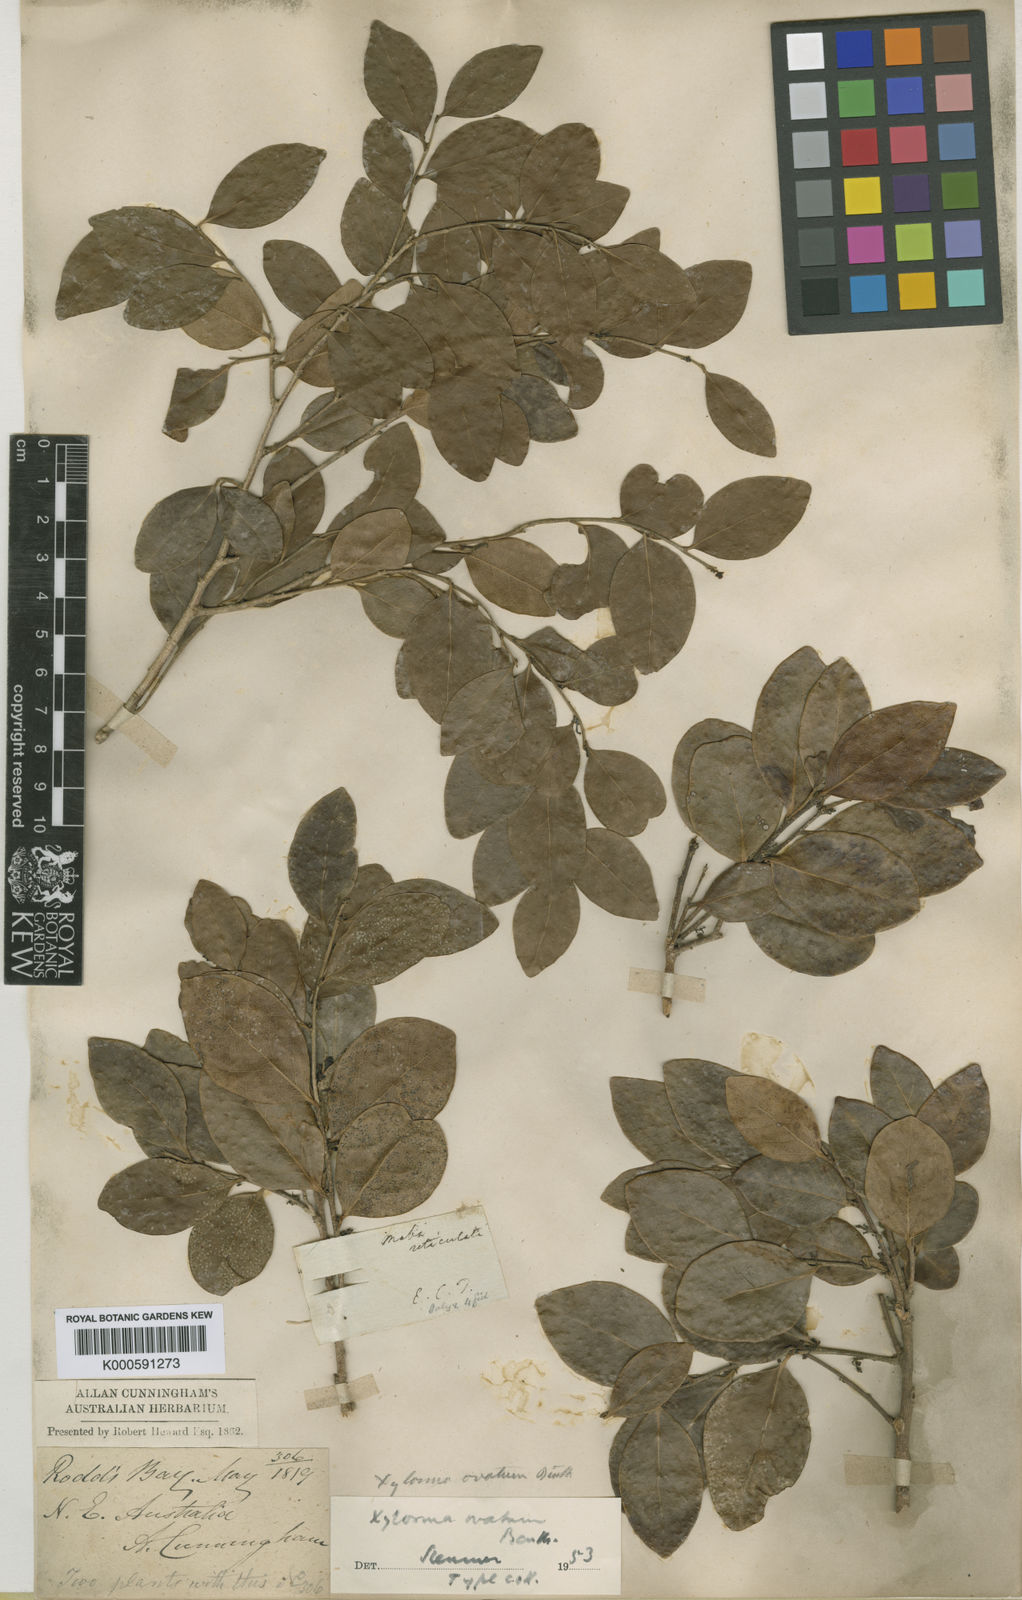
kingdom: Plantae
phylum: Tracheophyta
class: Magnoliopsida
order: Malpighiales
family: Salicaceae
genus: Xylosma
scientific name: Xylosma ovata
